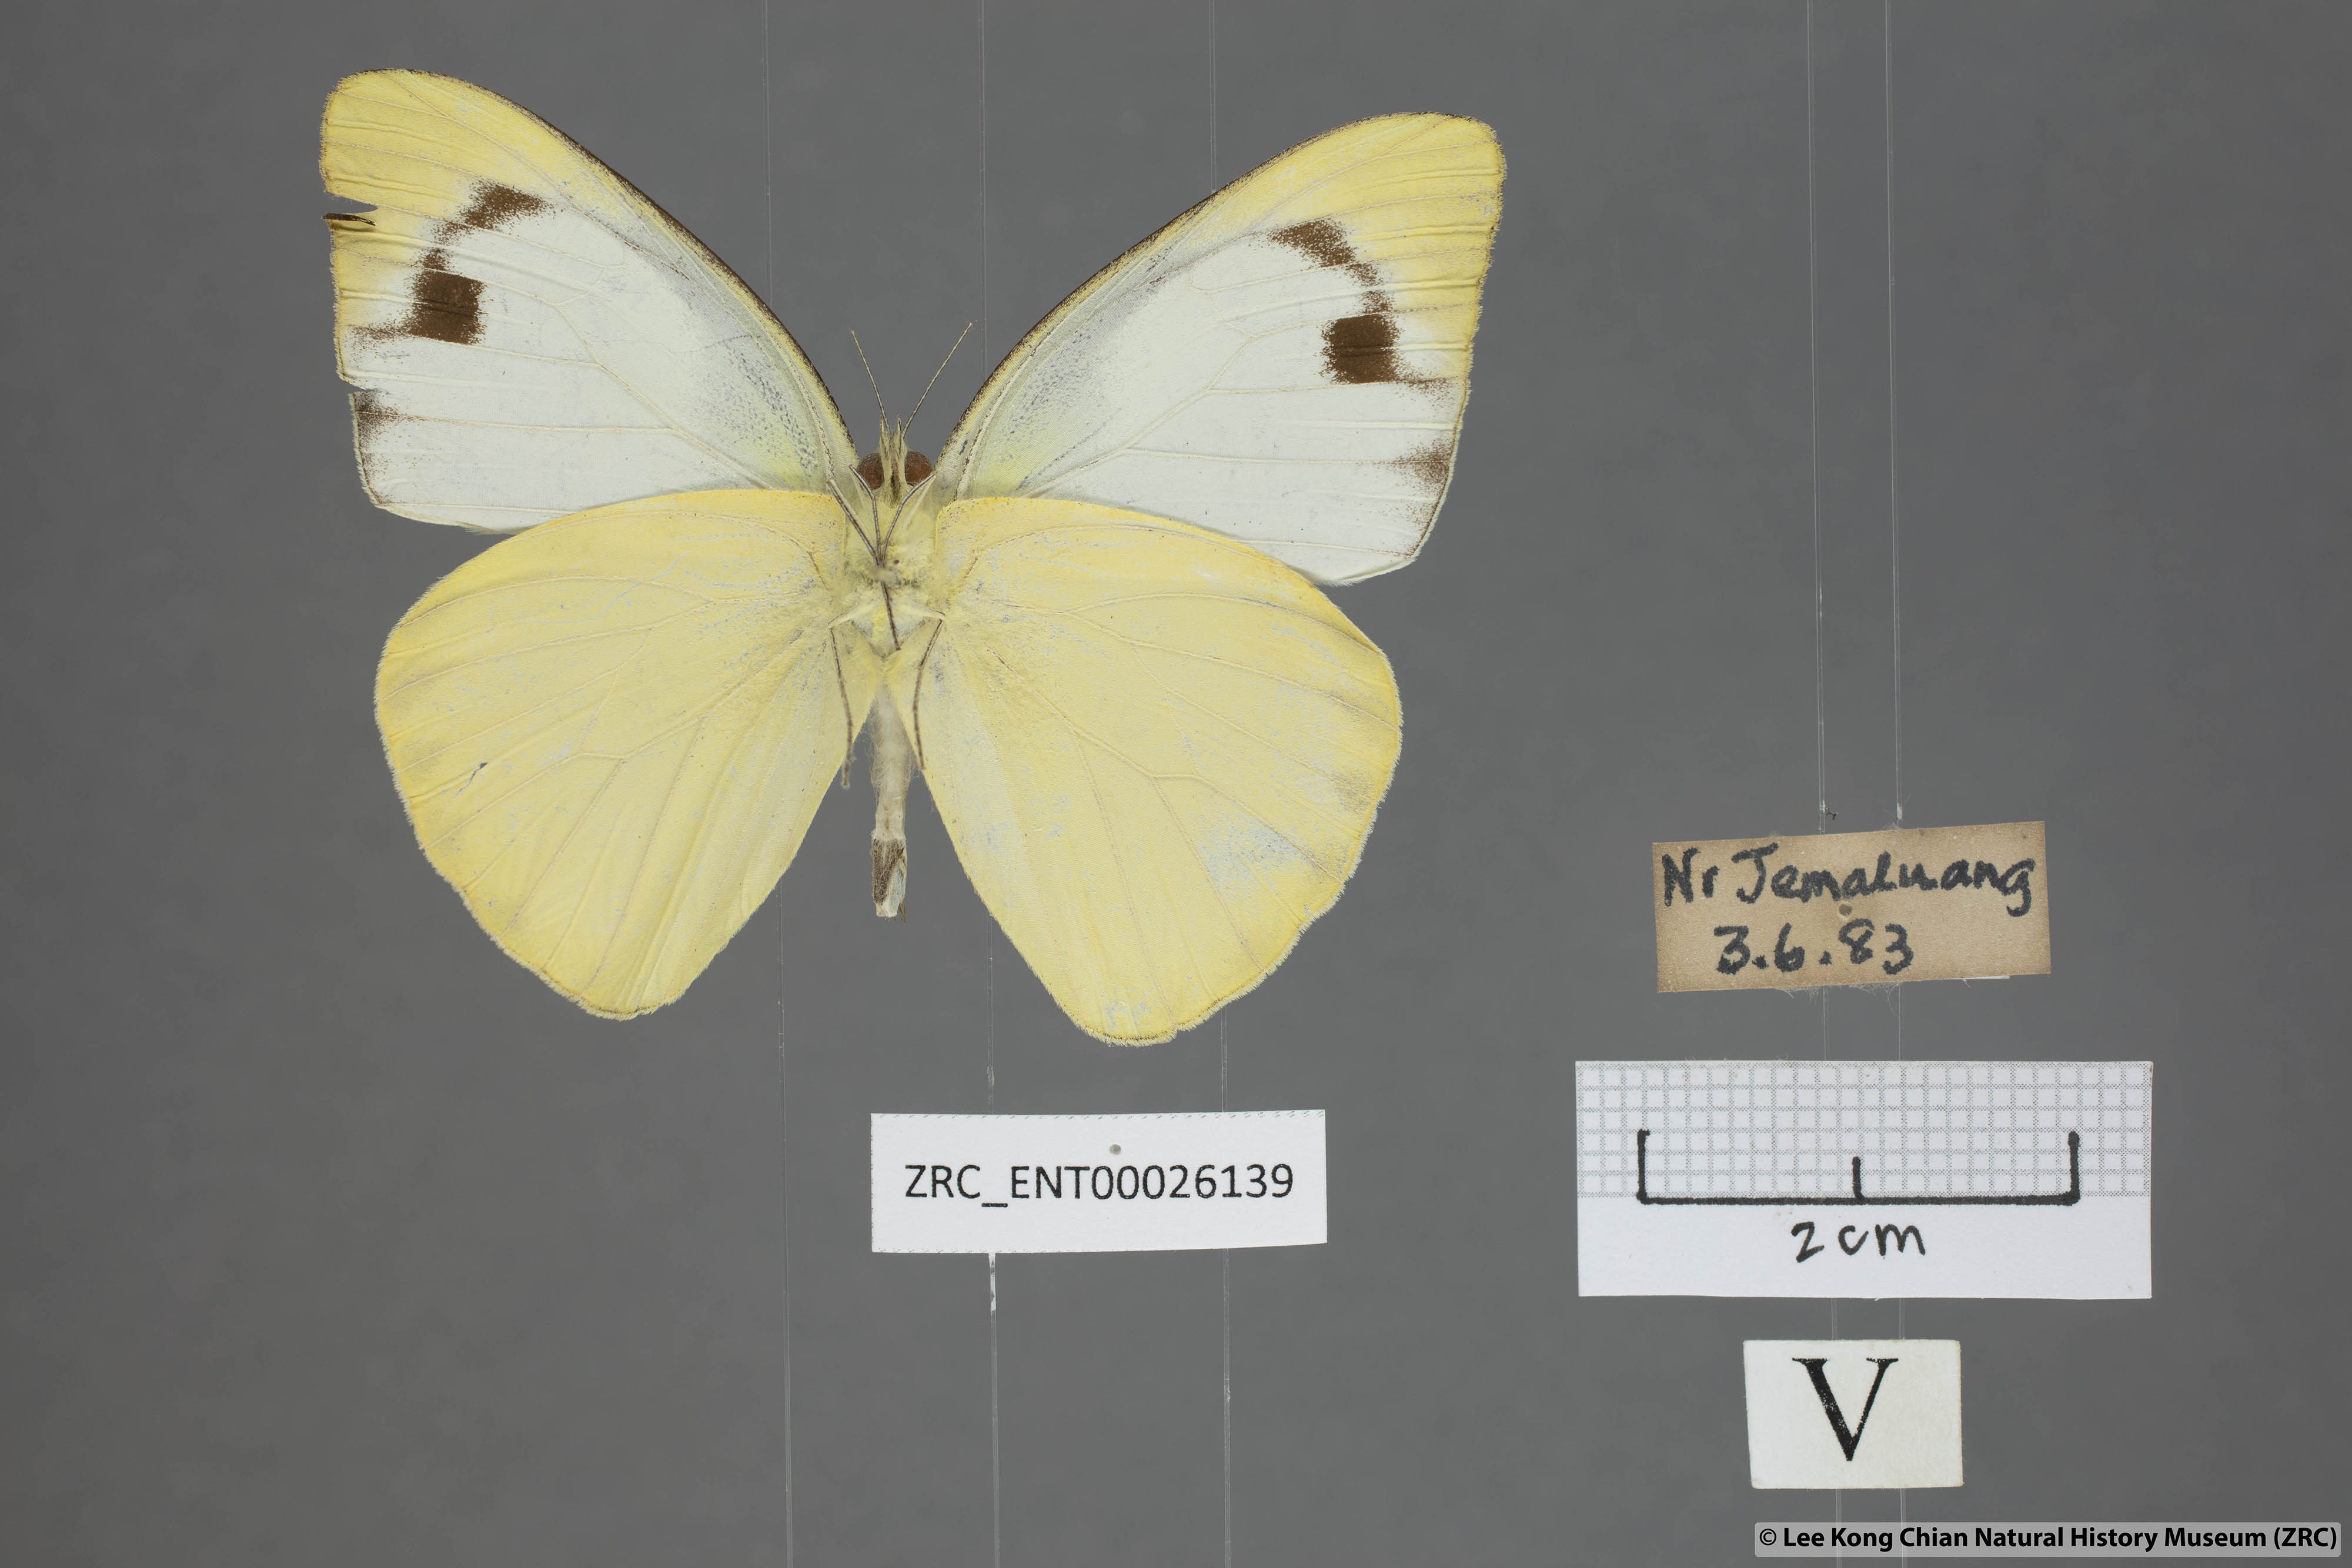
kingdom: Animalia
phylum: Arthropoda
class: Insecta
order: Lepidoptera
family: Pieridae
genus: Appias
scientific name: Appias paulina
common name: Ceylon lesser albatross
